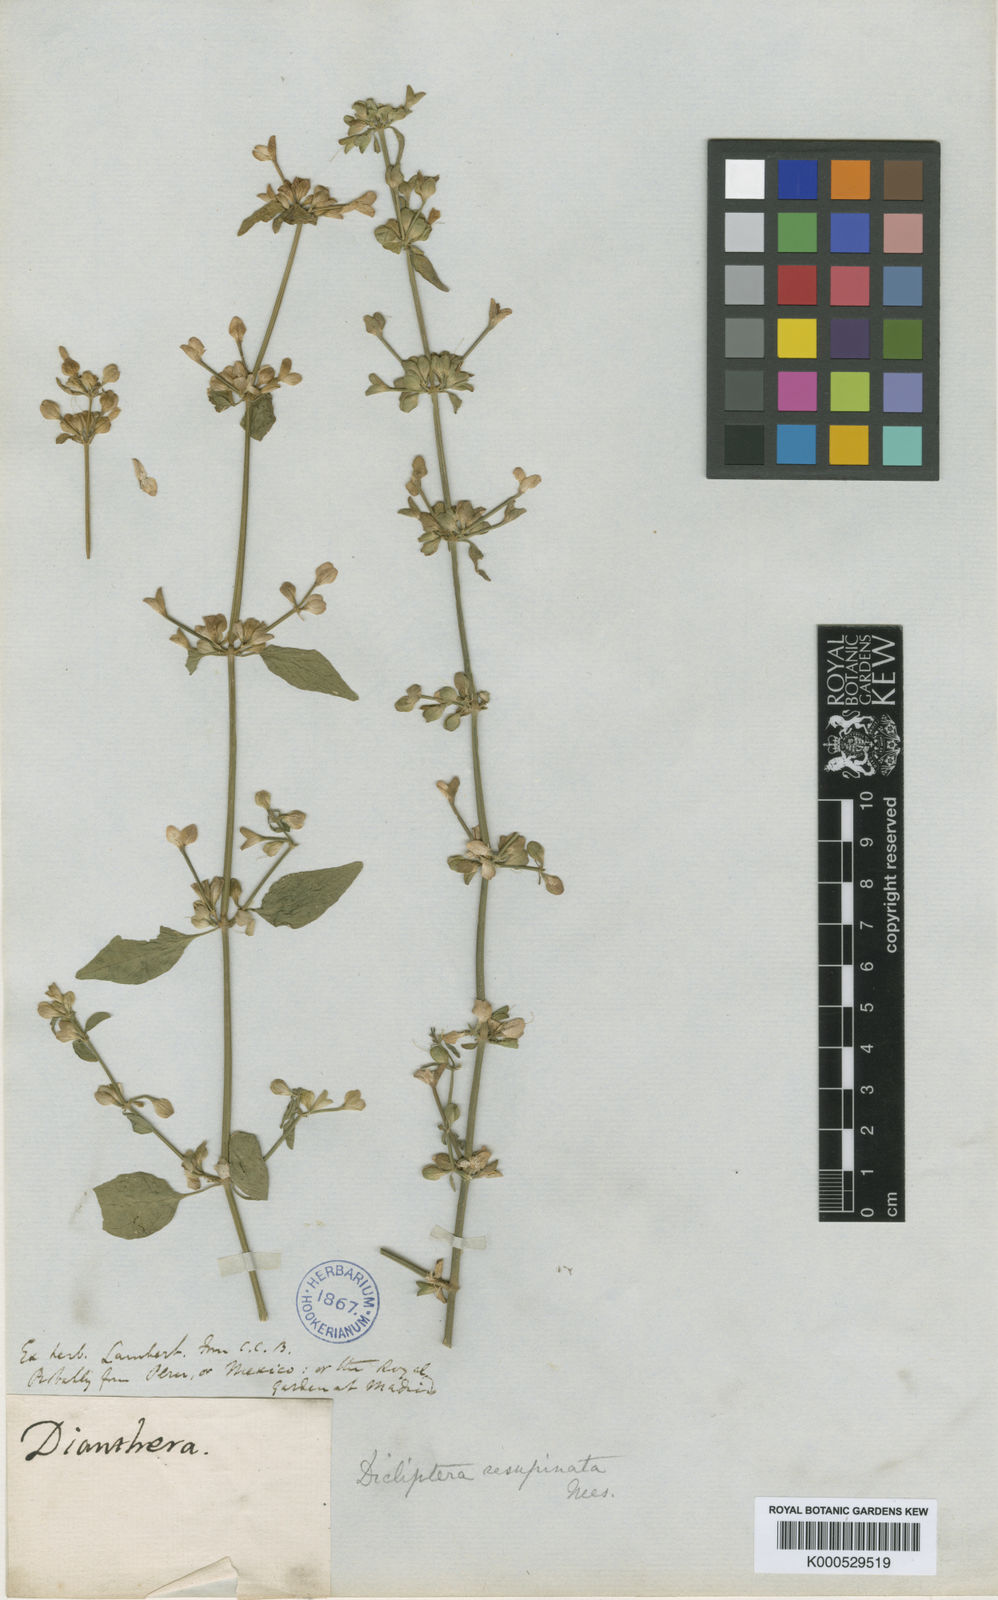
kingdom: Plantae
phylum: Tracheophyta
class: Magnoliopsida
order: Lamiales
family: Acanthaceae
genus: Dicliptera
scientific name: Dicliptera
